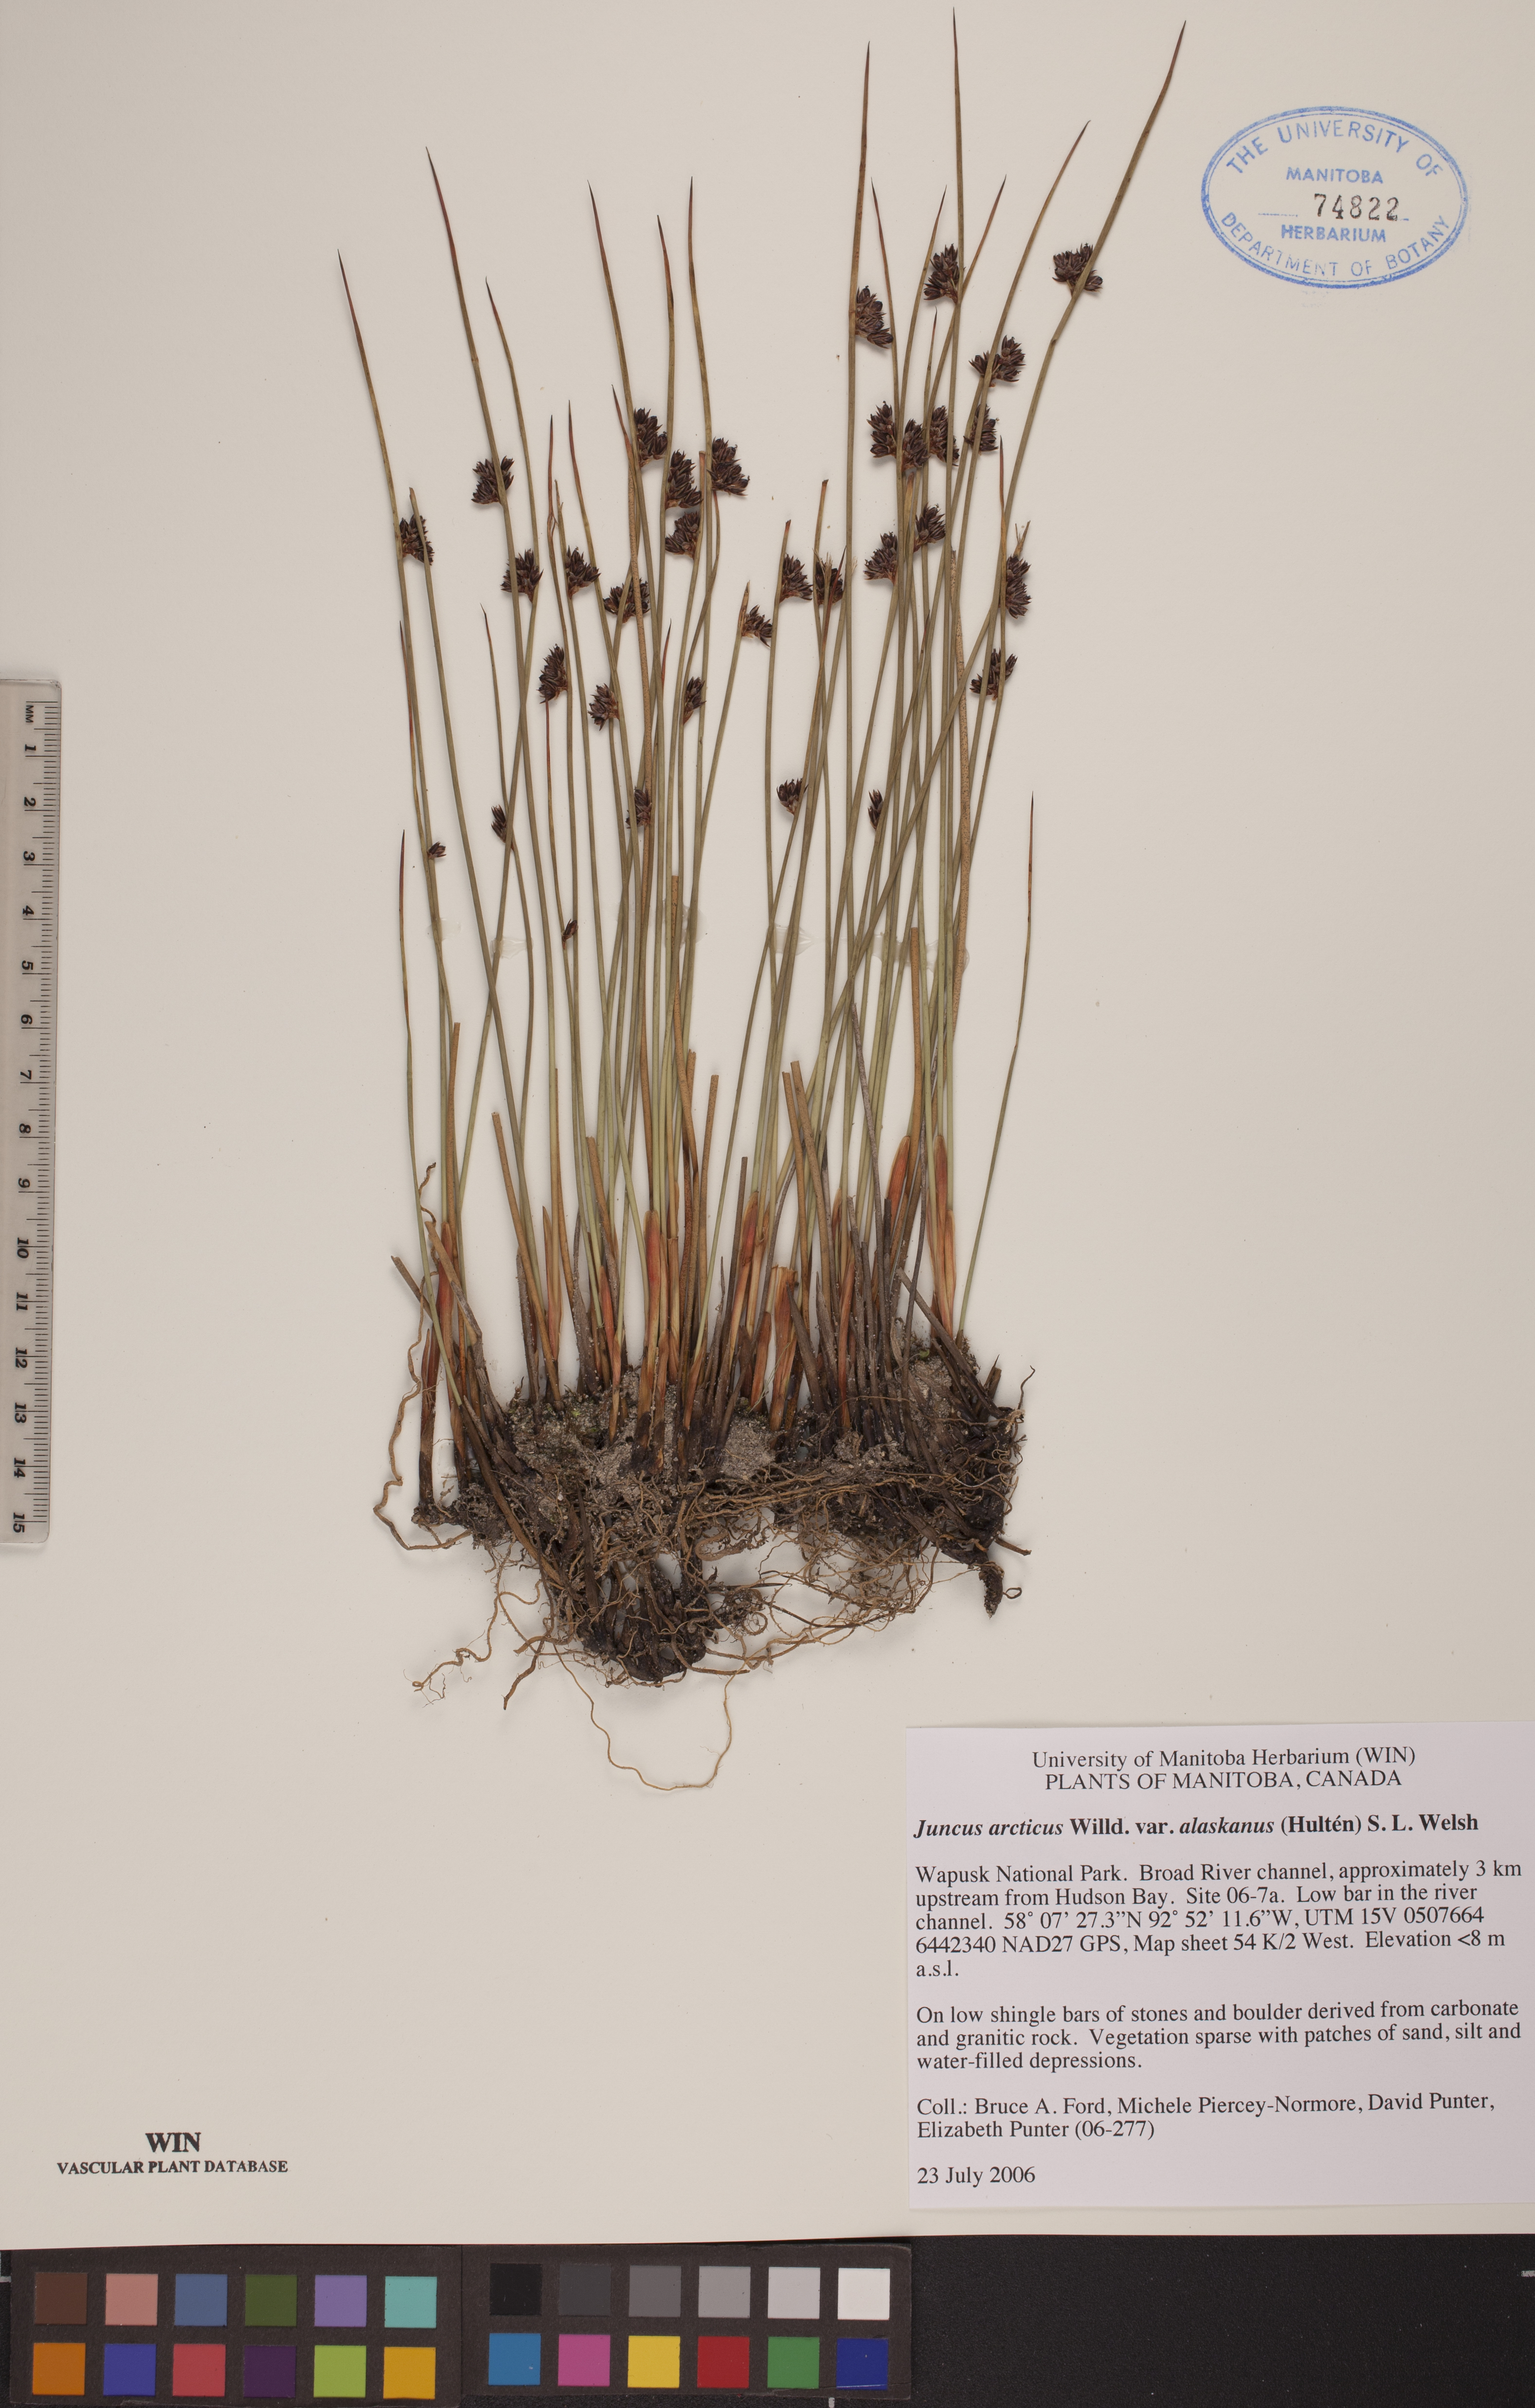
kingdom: Plantae
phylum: Tracheophyta
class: Liliopsida
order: Poales
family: Juncaceae
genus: Juncus
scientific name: Juncus arcticus
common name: Arctic rush
